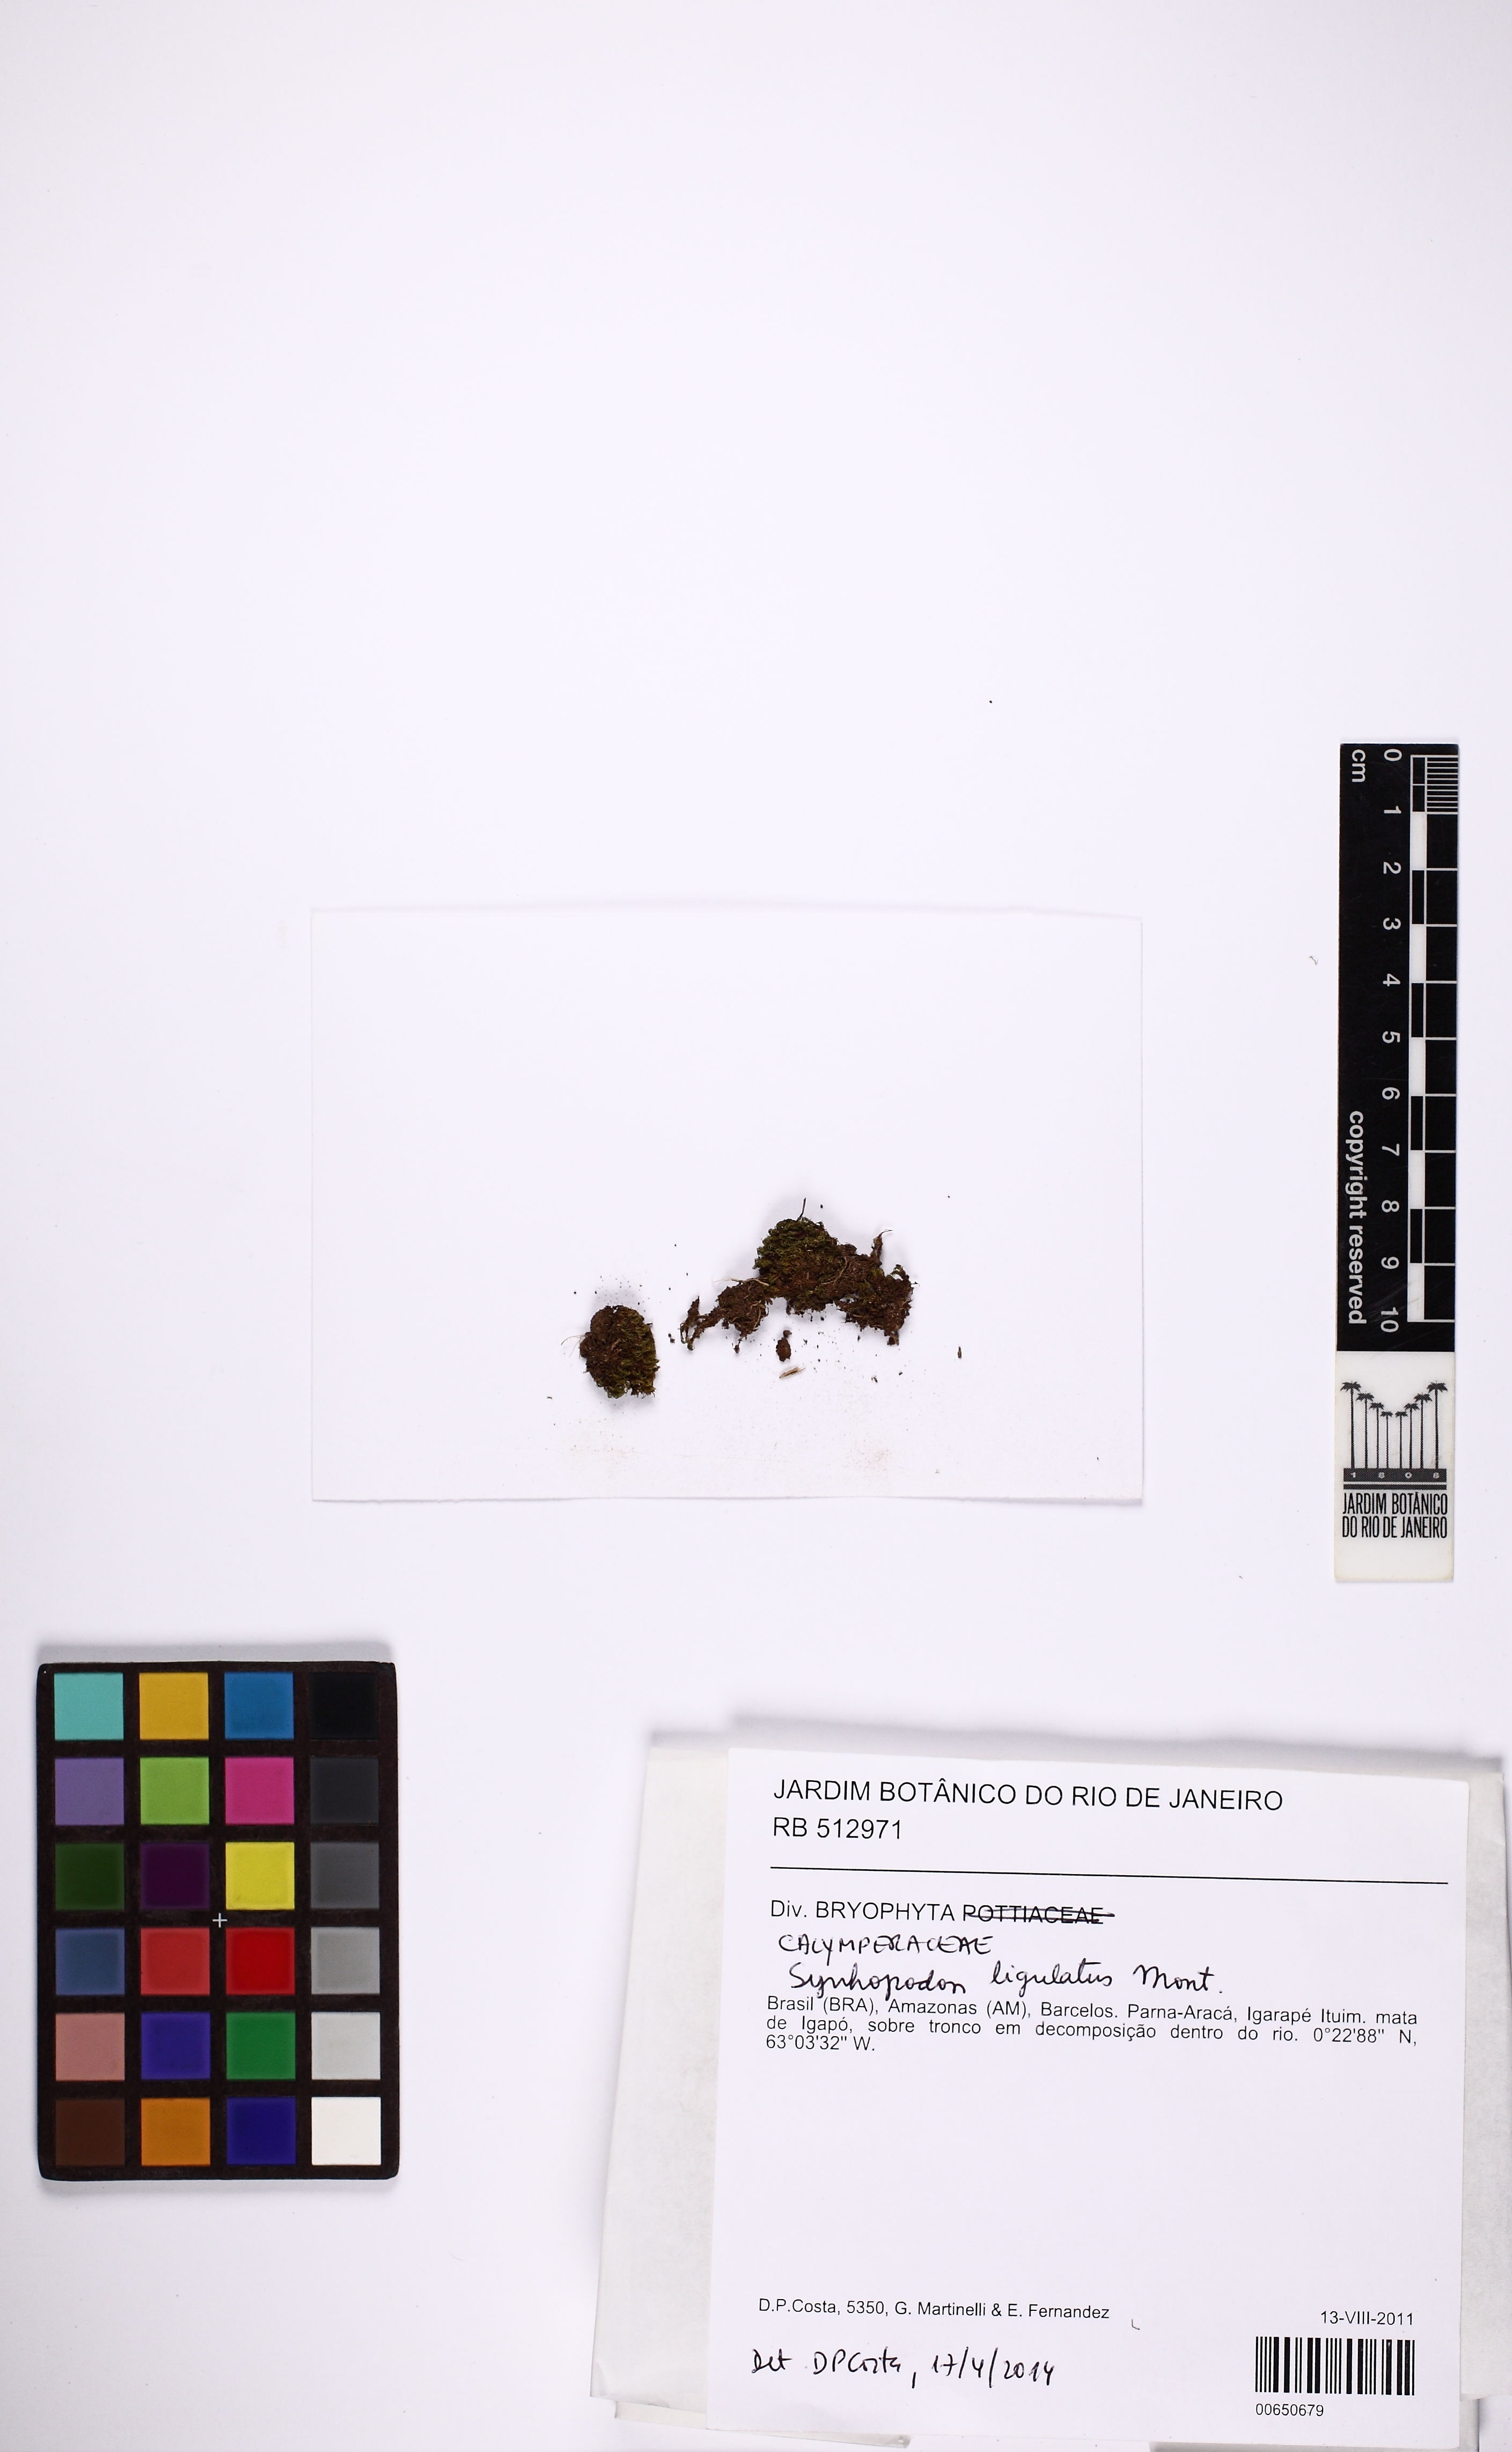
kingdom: Plantae
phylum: Bryophyta
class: Bryopsida
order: Dicranales
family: Calymperaceae
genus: Syrrhopodon
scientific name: Syrrhopodon ligulatus
